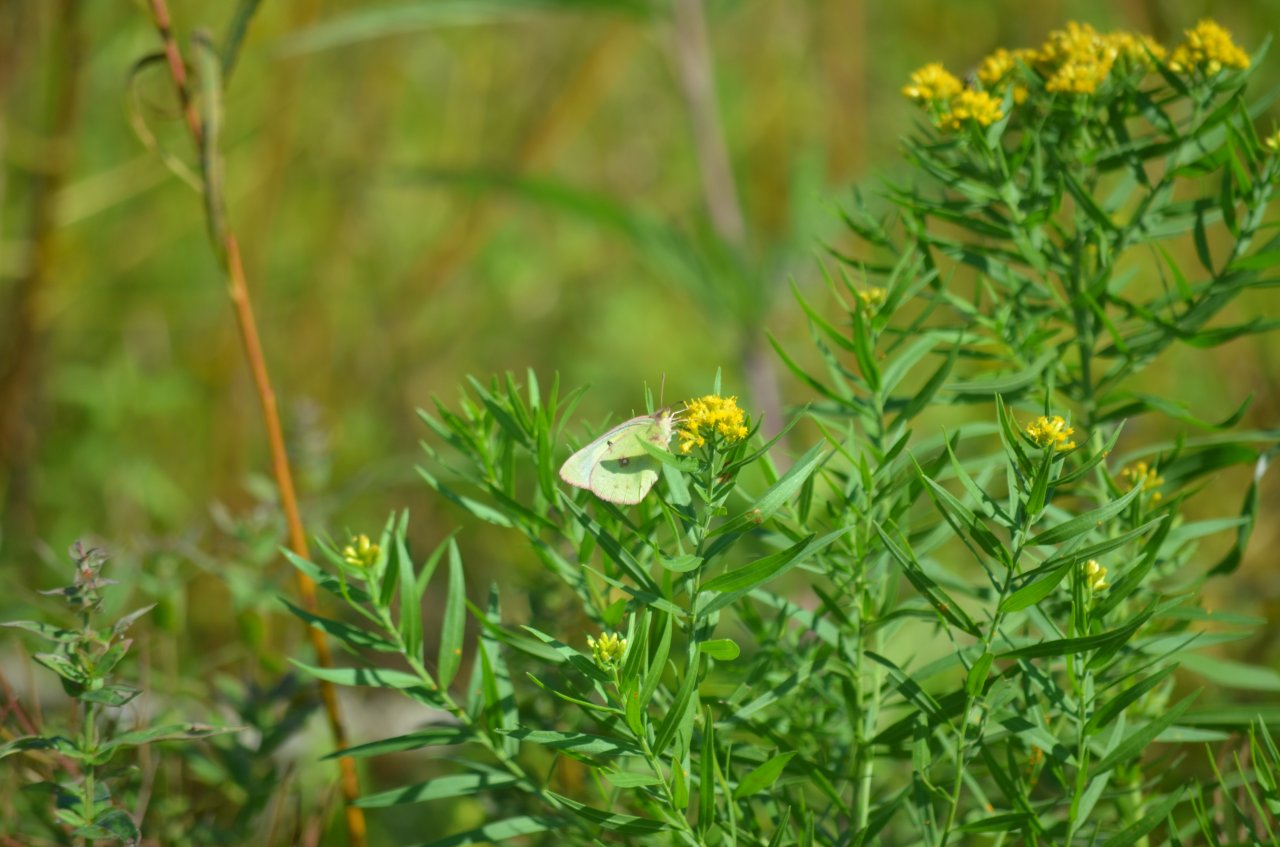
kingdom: Animalia
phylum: Arthropoda
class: Insecta
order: Lepidoptera
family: Pieridae
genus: Colias
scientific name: Colias eurytheme
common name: Orange Sulphur
